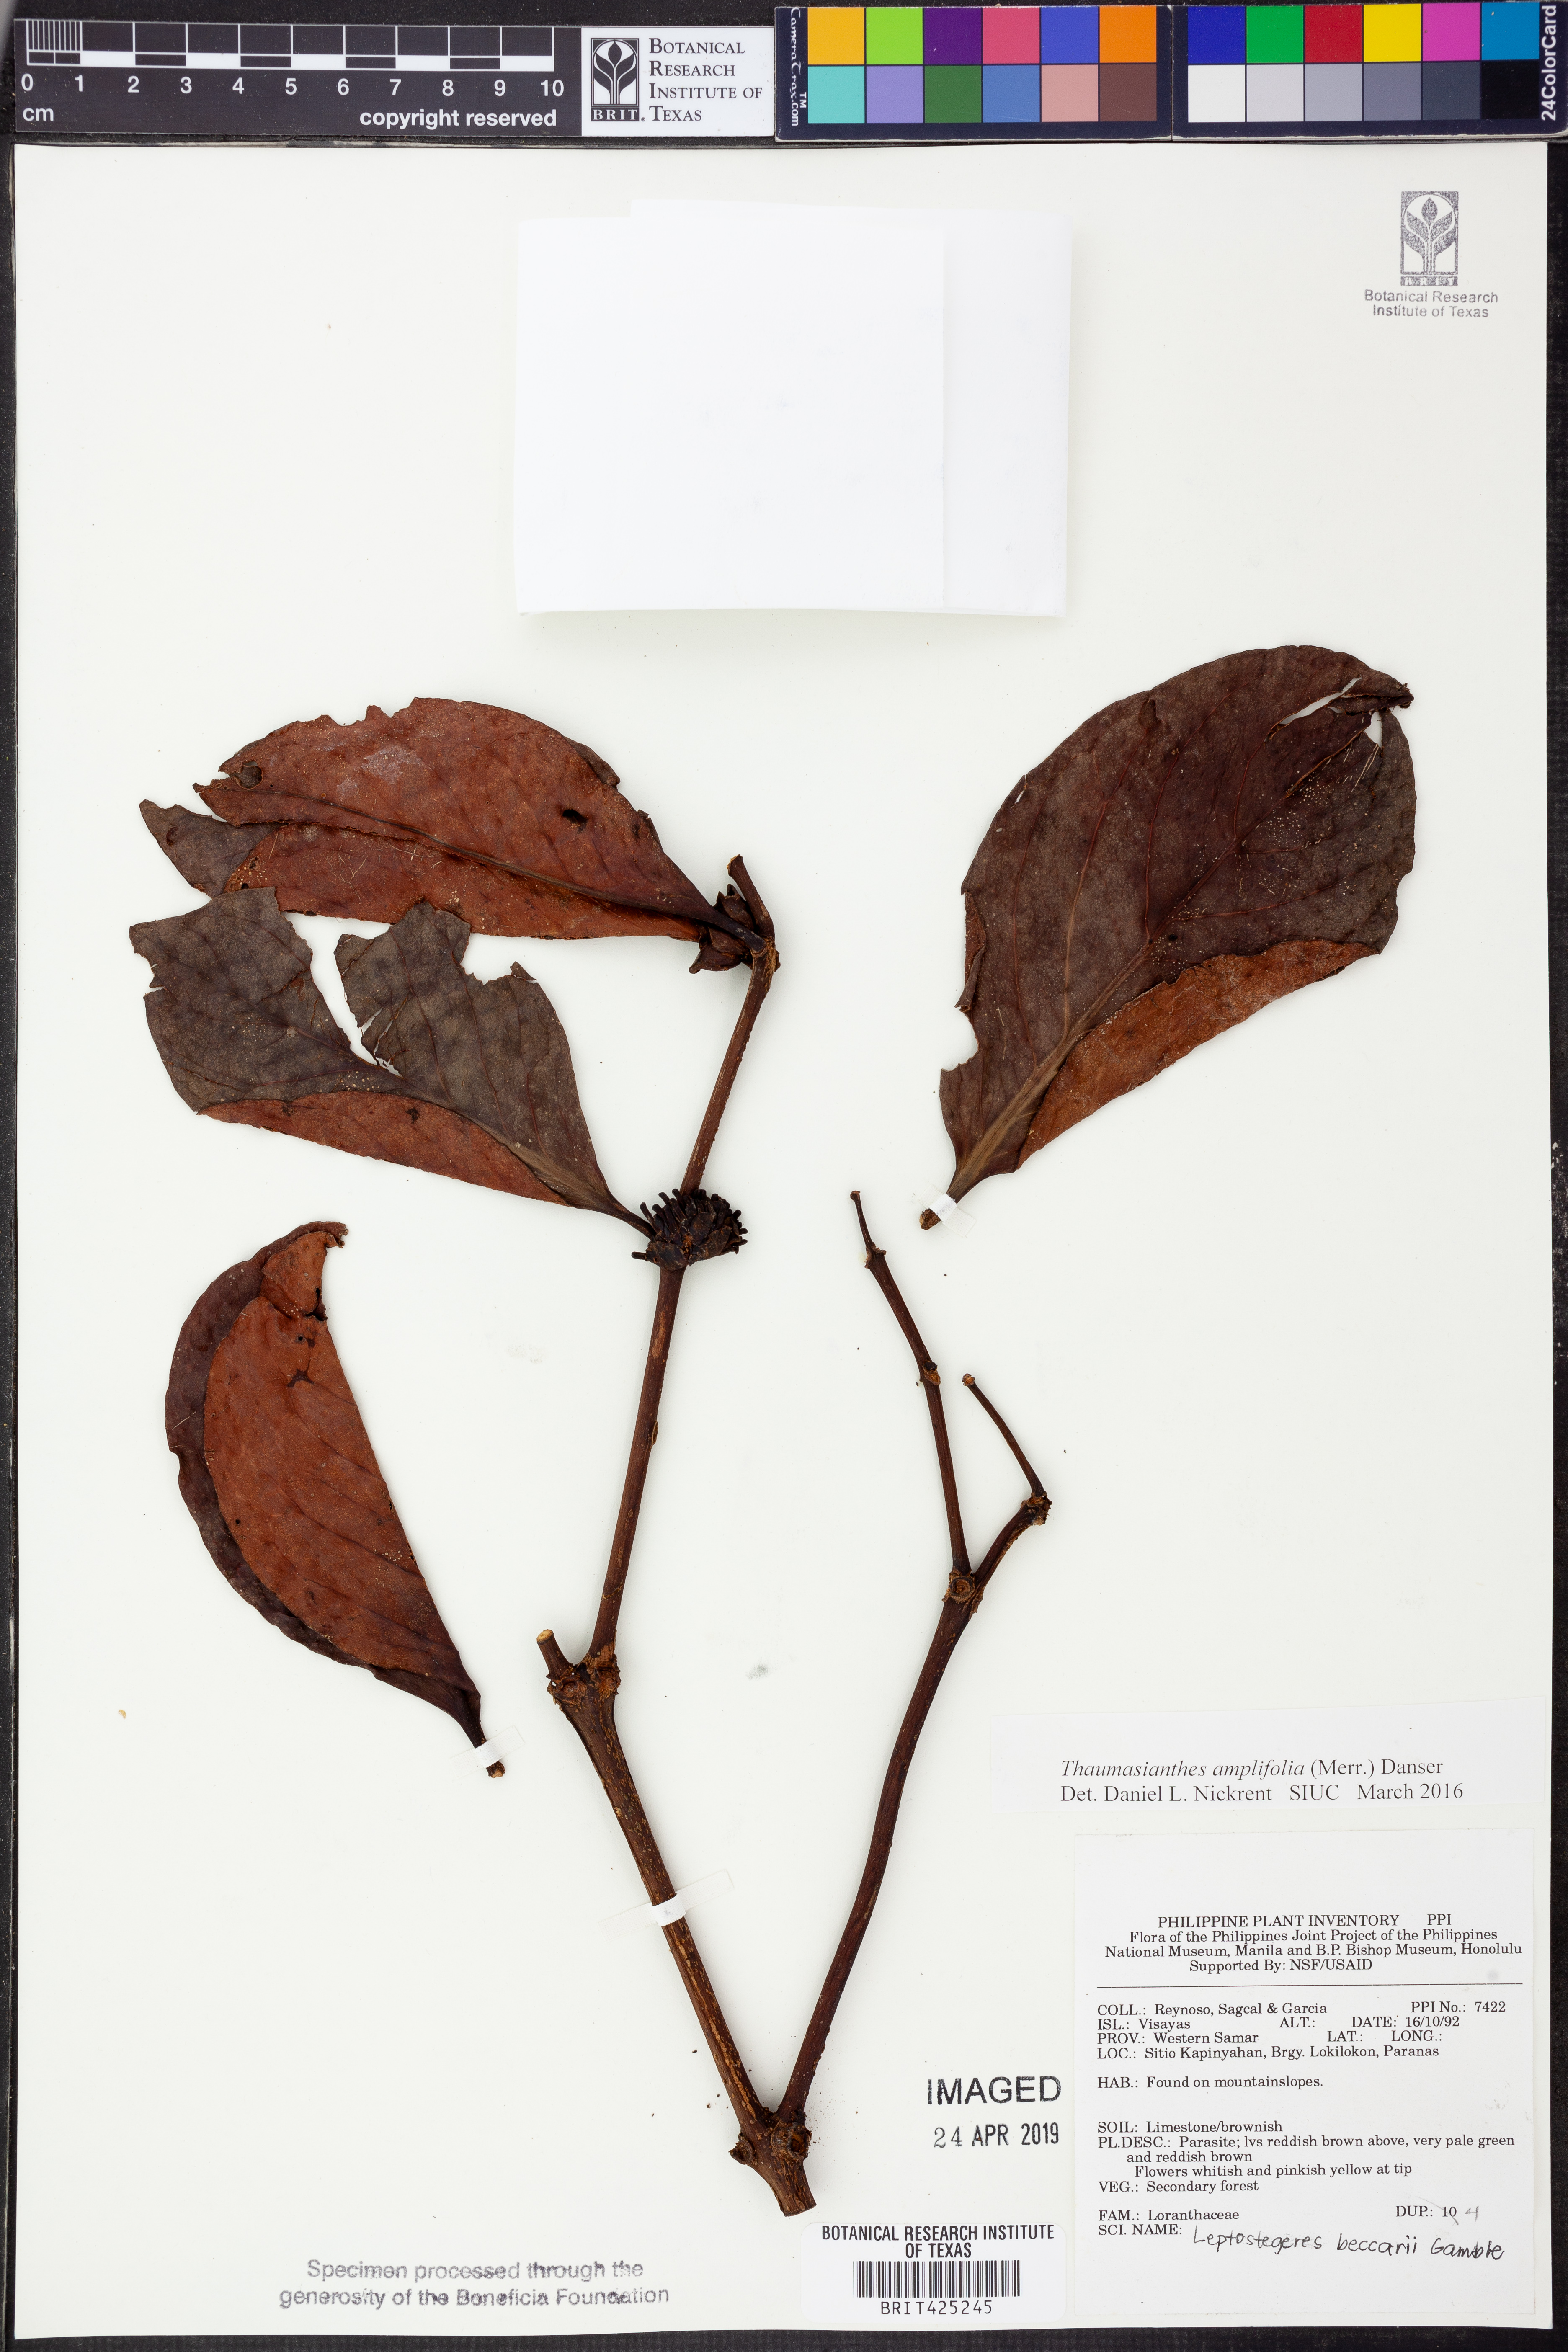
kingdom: Plantae
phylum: Tracheophyta
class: Magnoliopsida
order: Santalales
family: Loranthaceae
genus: Lepeostegeres
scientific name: Lepeostegeres beccarii
